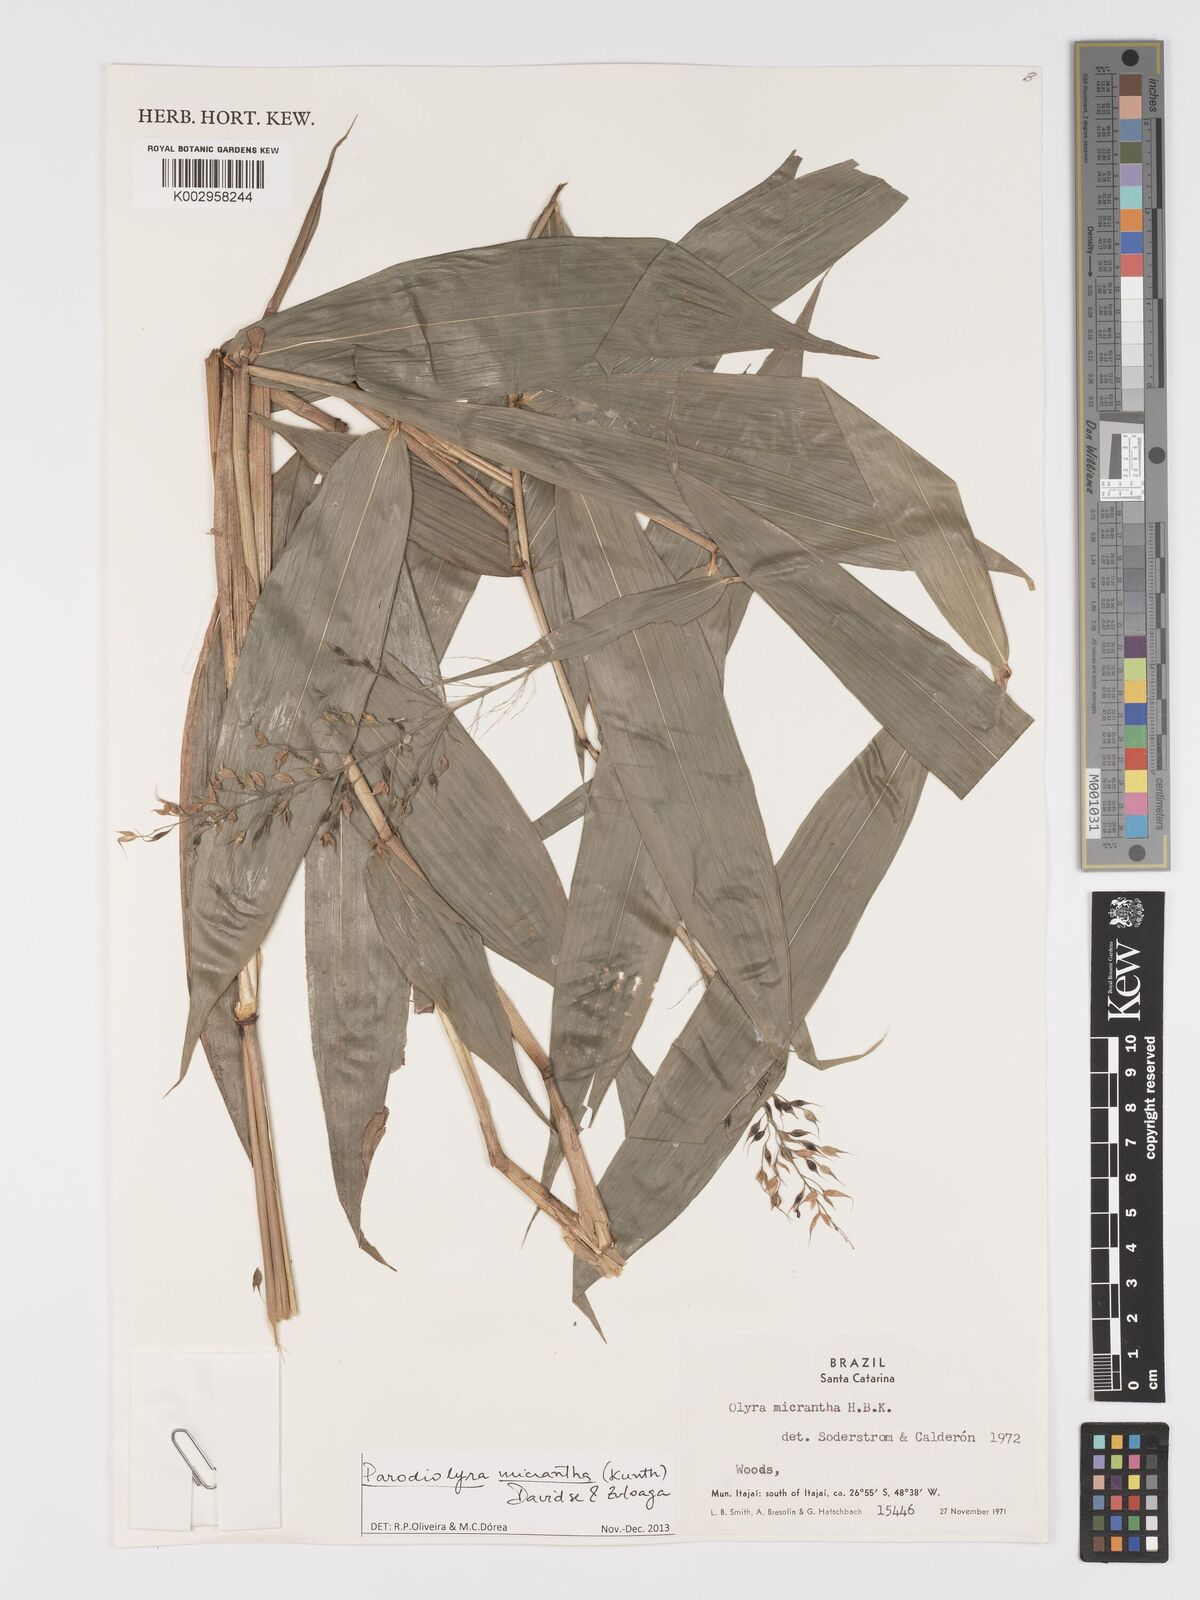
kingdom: Plantae
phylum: Tracheophyta
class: Liliopsida
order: Poales
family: Poaceae
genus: Taquara
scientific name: Taquara micrantha
